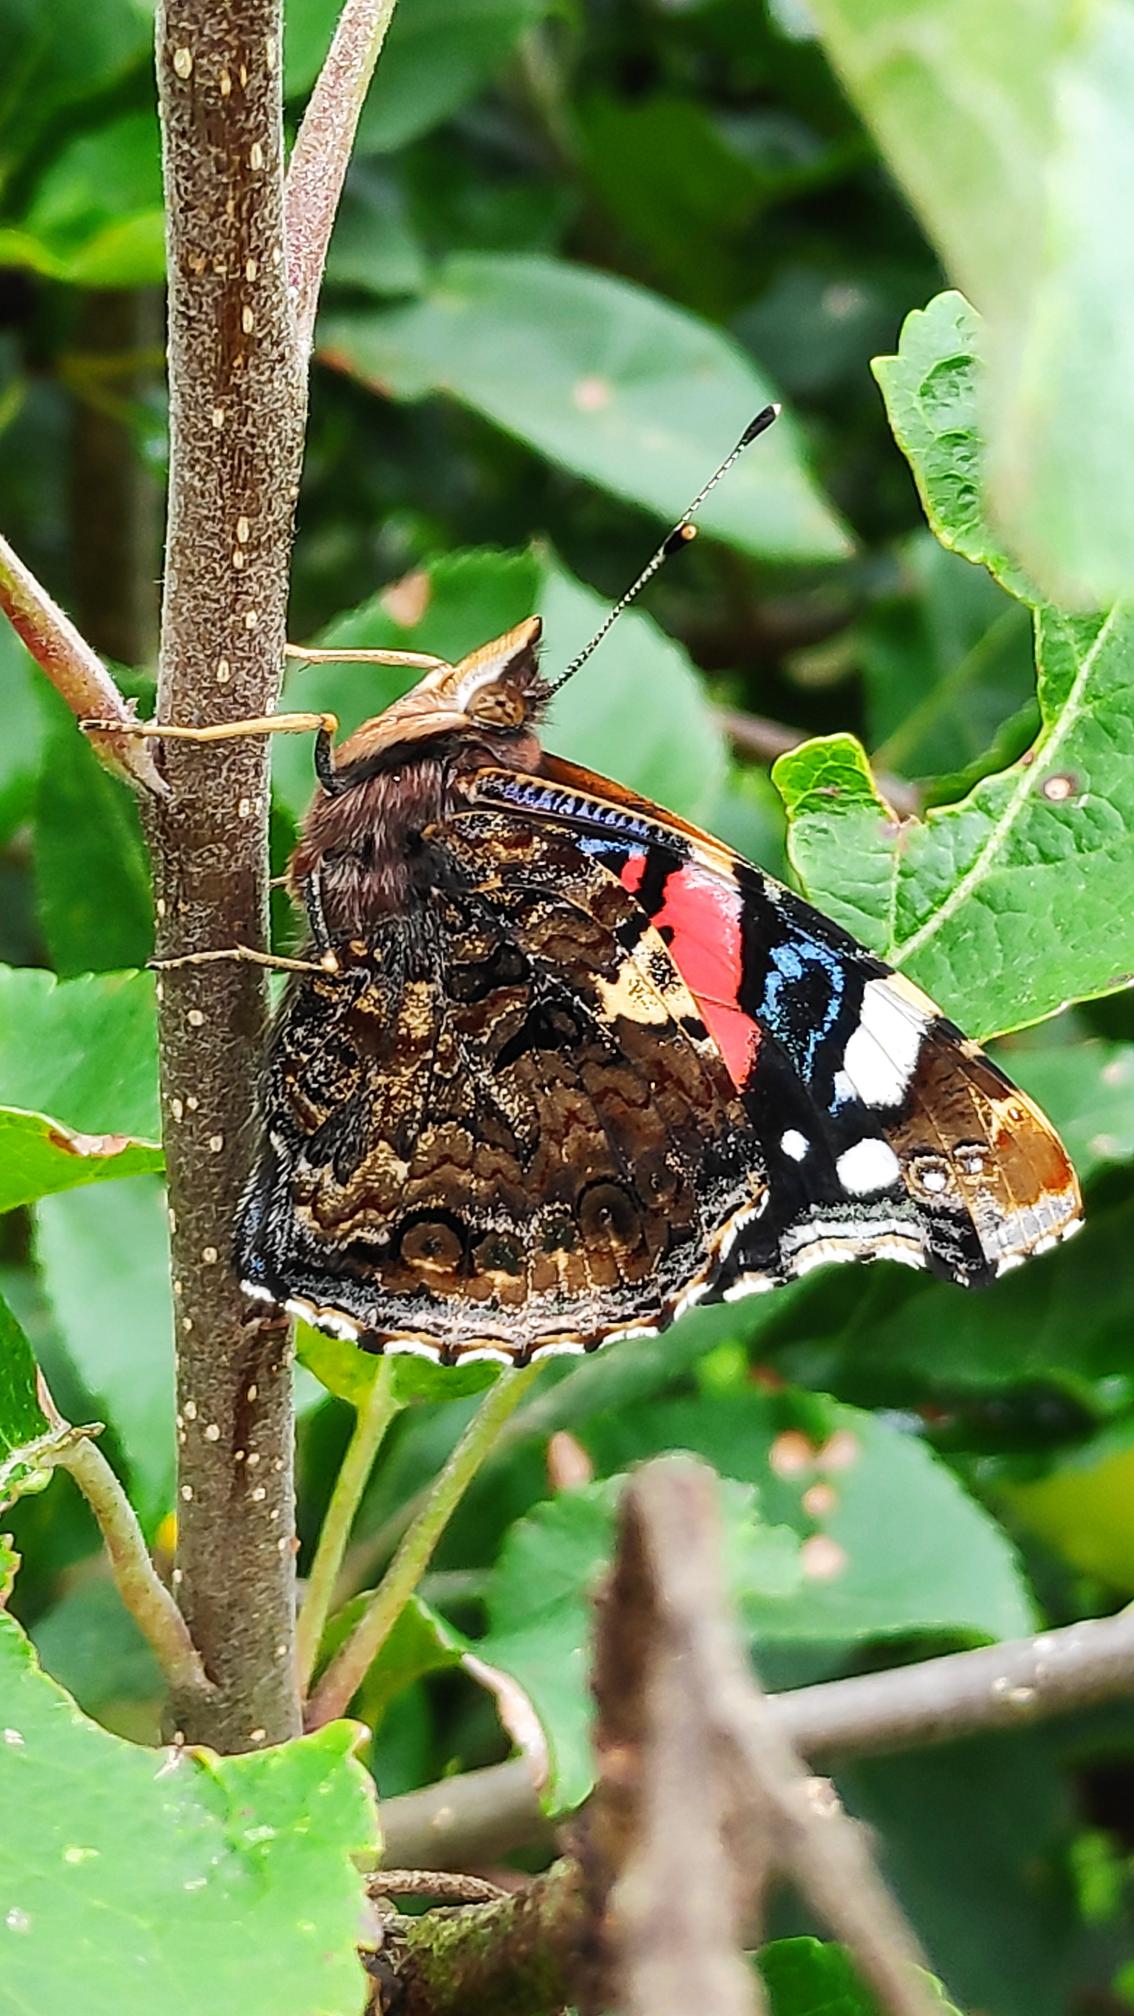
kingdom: Animalia
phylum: Arthropoda
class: Insecta
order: Lepidoptera
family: Nymphalidae
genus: Vanessa
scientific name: Vanessa atalanta
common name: Admiral
